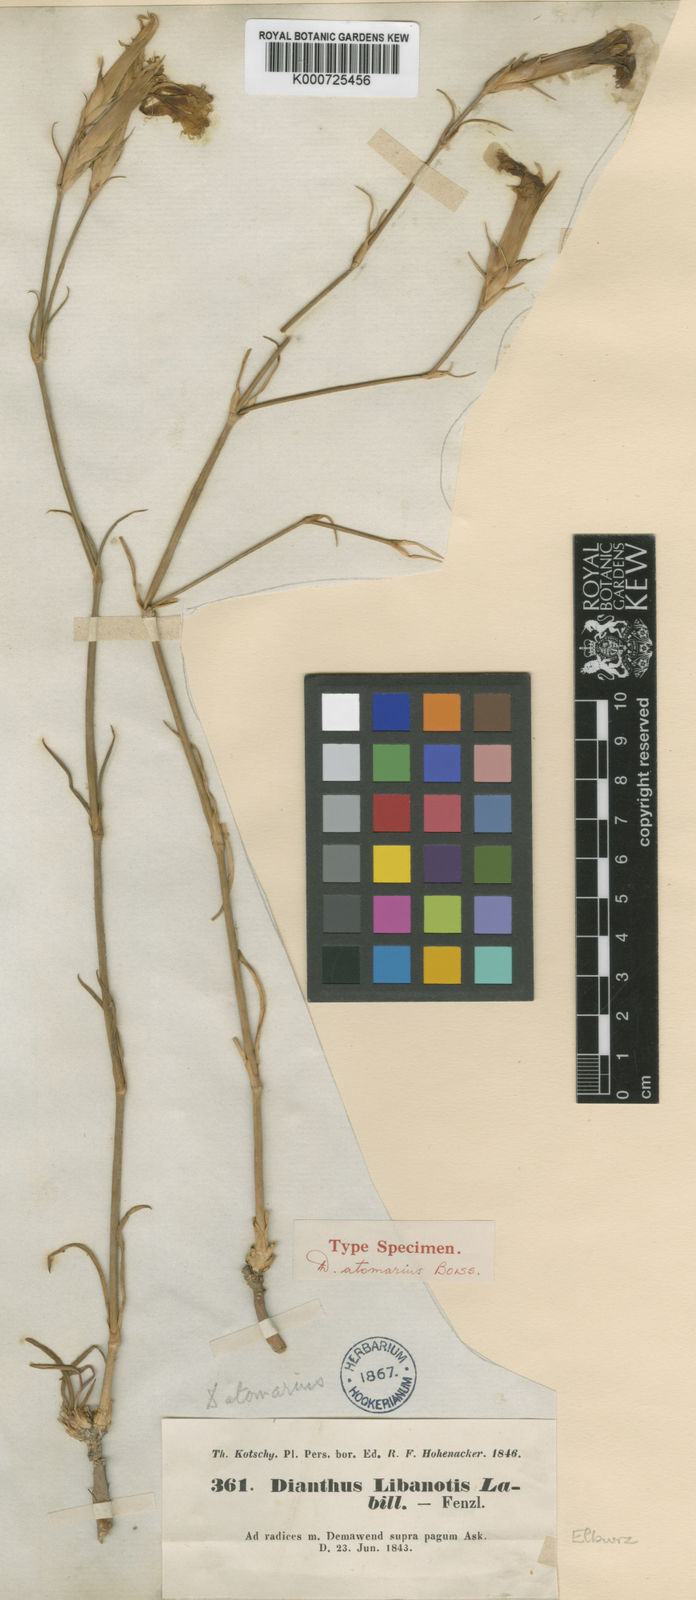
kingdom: Plantae
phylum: Tracheophyta
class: Magnoliopsida
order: Caryophyllales
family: Caryophyllaceae
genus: Dianthus
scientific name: Dianthus libanotis
